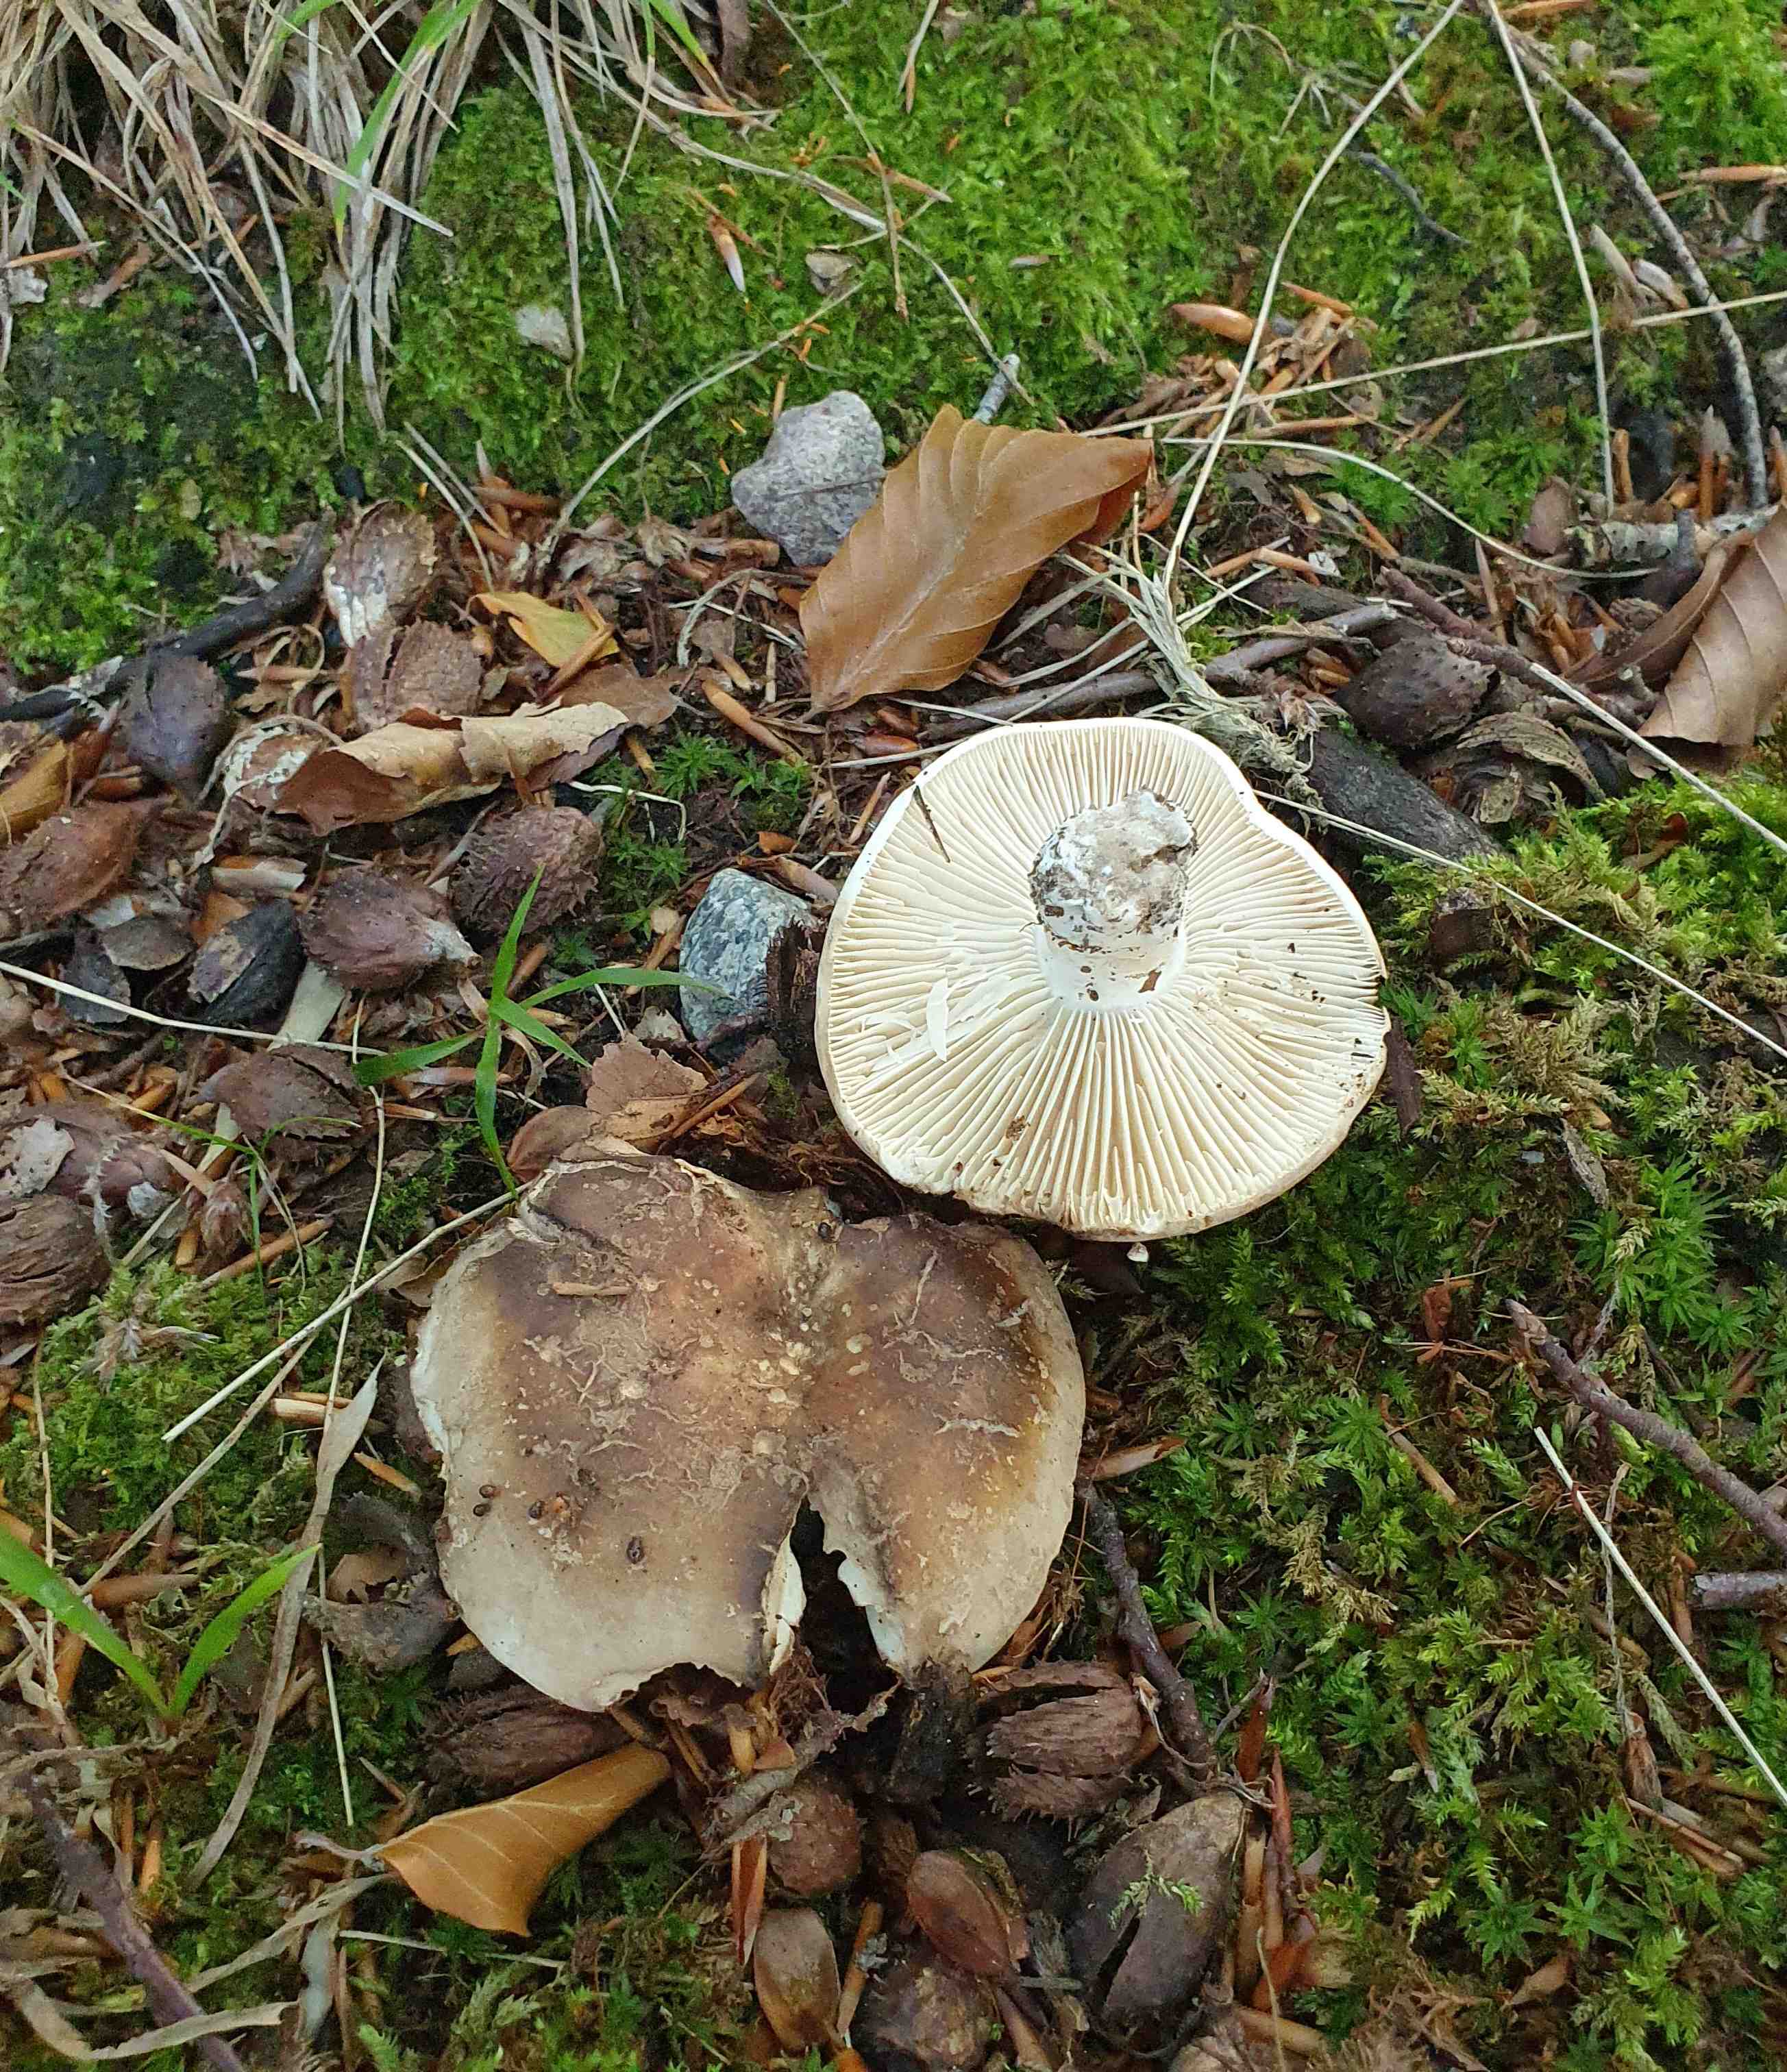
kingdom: Fungi
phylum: Basidiomycota
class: Agaricomycetes
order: Russulales
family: Russulaceae
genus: Russula
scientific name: Russula adusta
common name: sværtende skørhat
